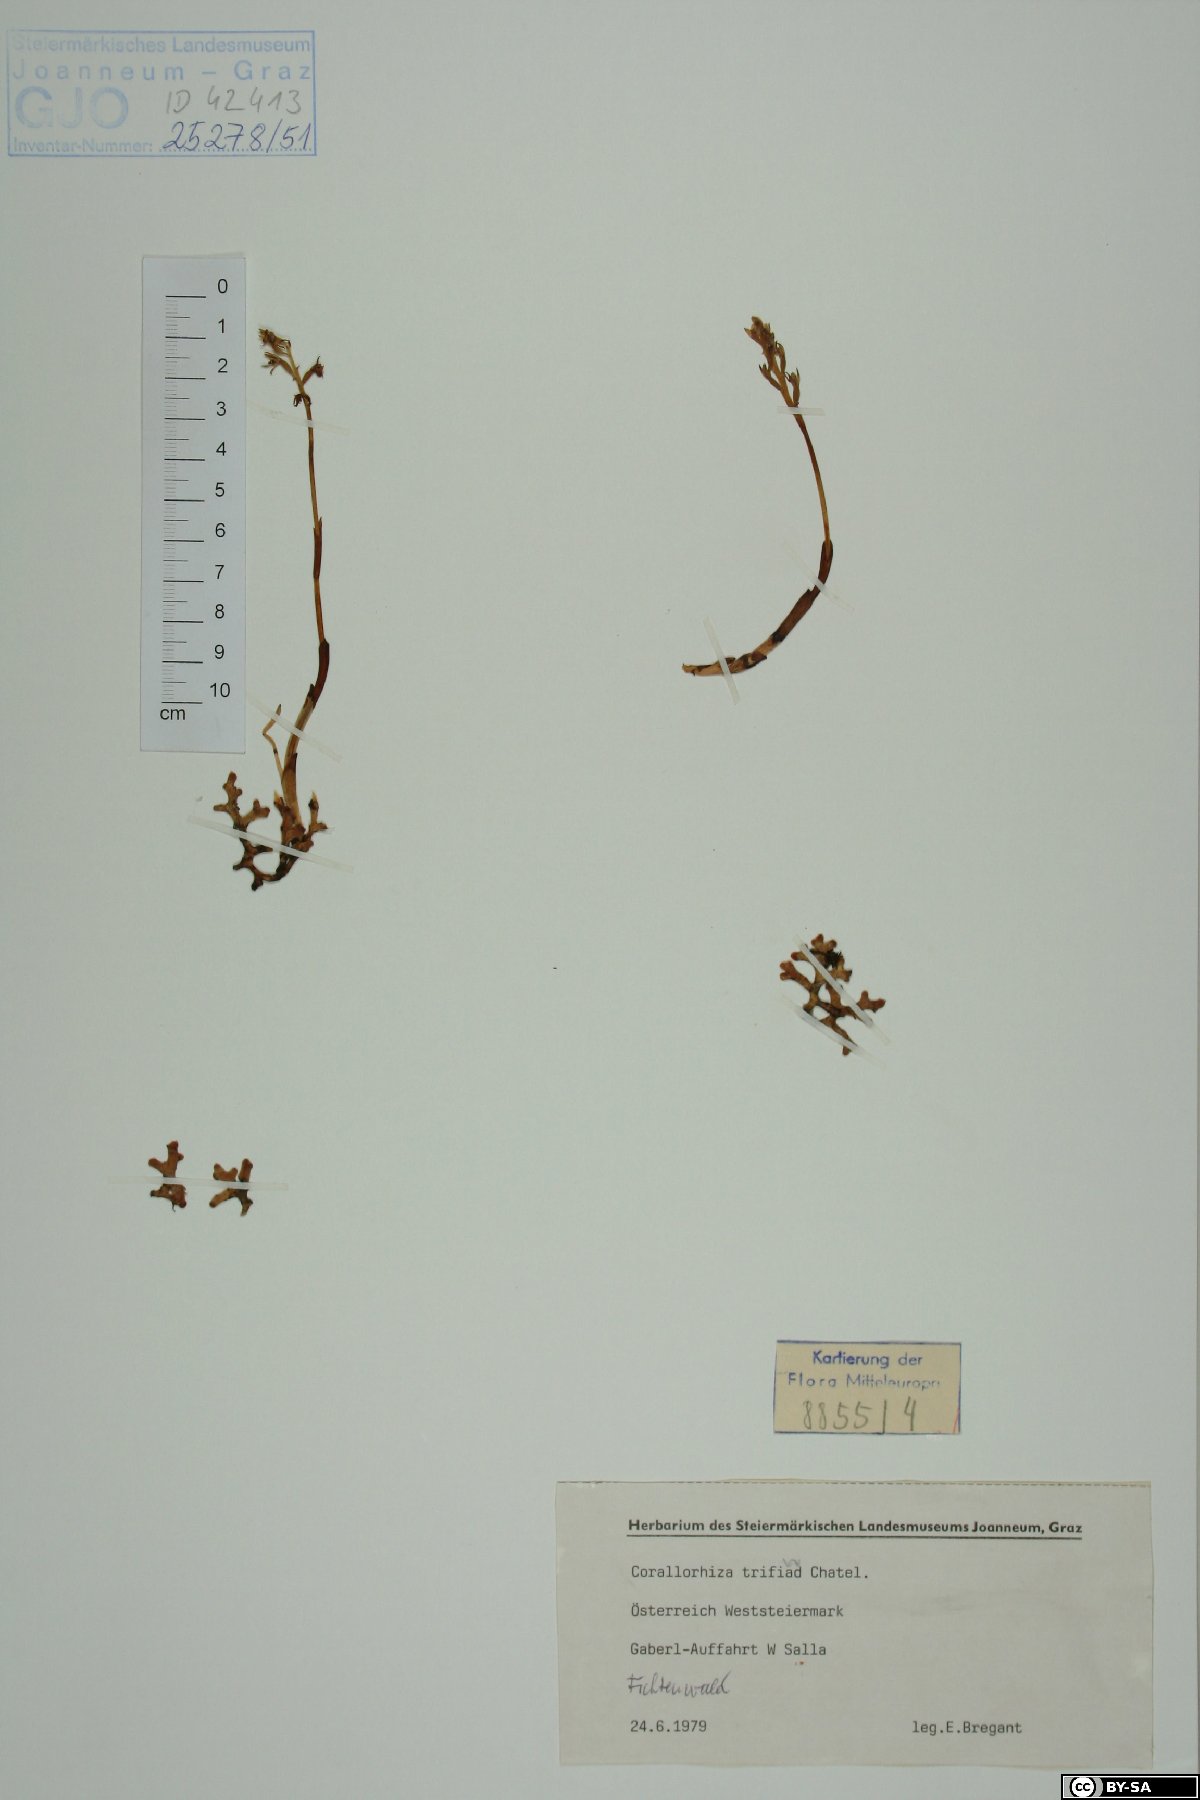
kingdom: Plantae
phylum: Tracheophyta
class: Liliopsida
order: Asparagales
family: Orchidaceae
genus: Corallorhiza
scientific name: Corallorhiza trifida
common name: Yellow coralroot
